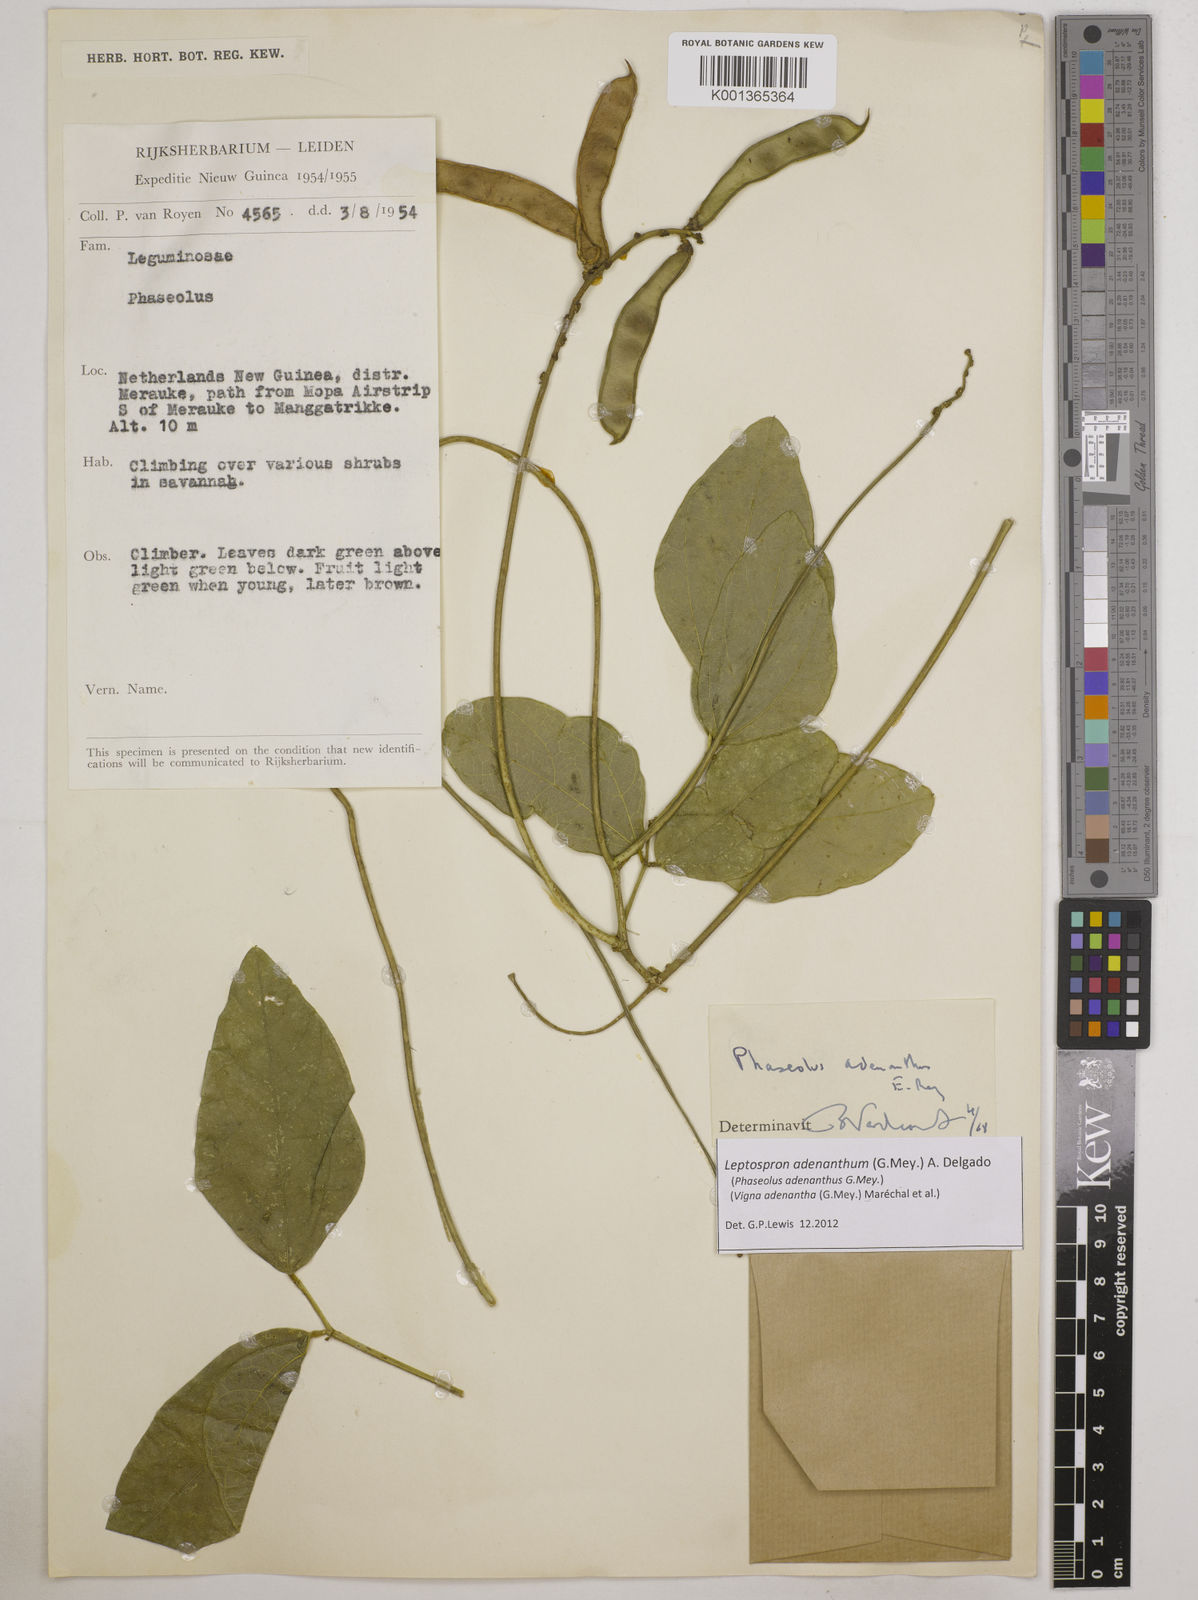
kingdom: Plantae
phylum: Tracheophyta
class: Magnoliopsida
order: Fabales
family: Fabaceae
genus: Leptospron
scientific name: Leptospron adenanthum
